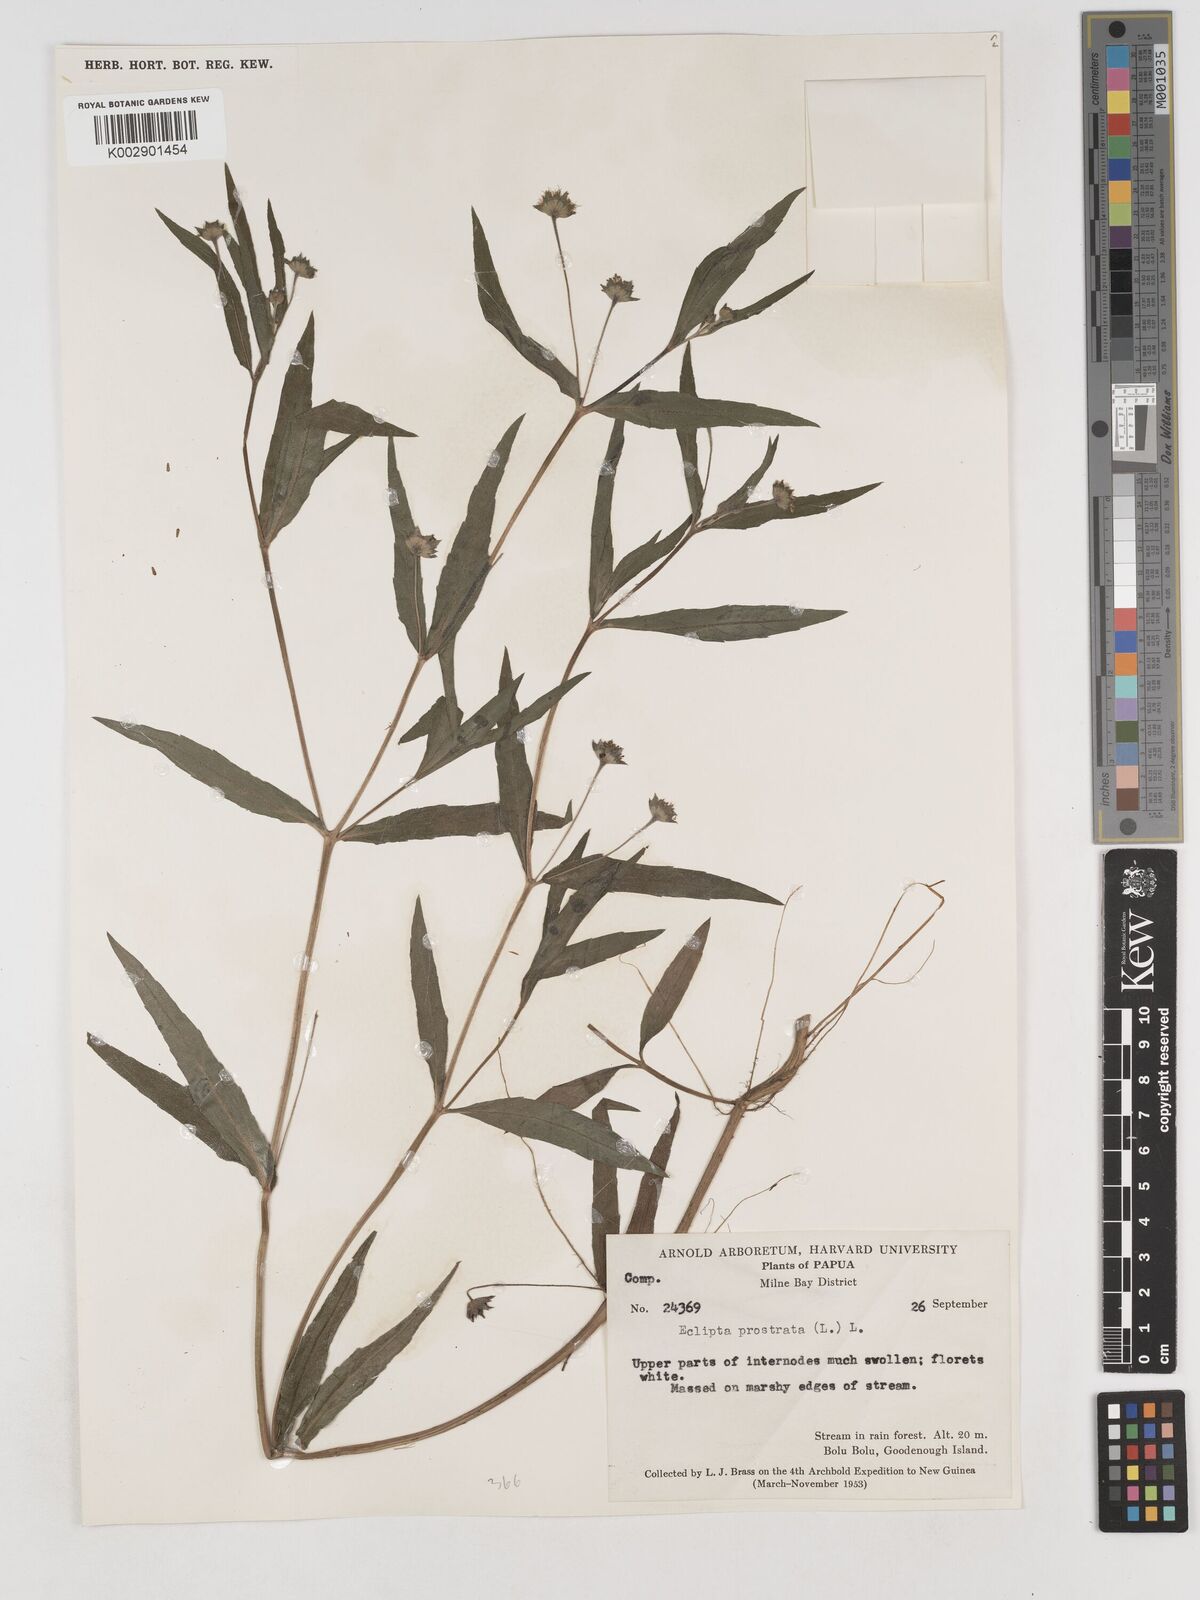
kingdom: Plantae
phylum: Tracheophyta
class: Magnoliopsida
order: Asterales
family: Asteraceae
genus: Eclipta
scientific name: Eclipta prostrata
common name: False daisy
